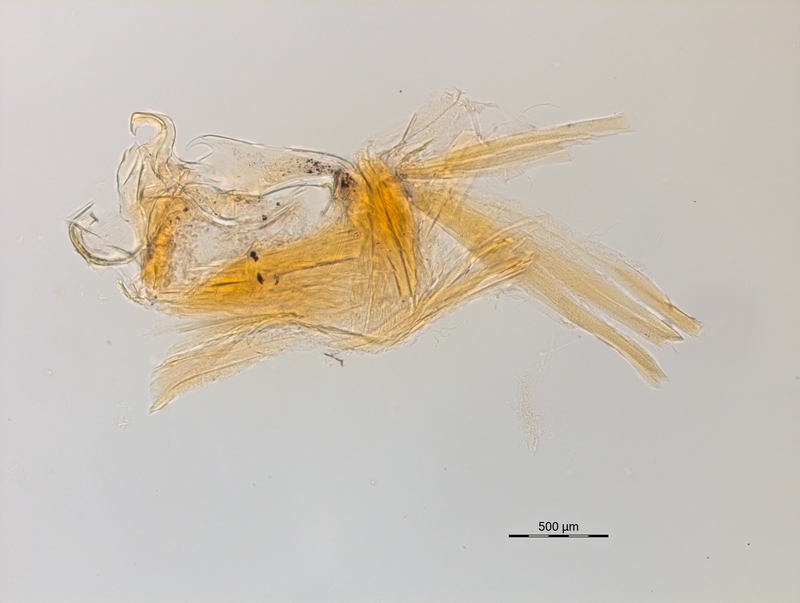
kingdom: Animalia
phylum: Arthropoda
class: Diplopoda
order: Chordeumatida
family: Craspedosomatidae
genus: Ochogona
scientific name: Ochogona caroli
